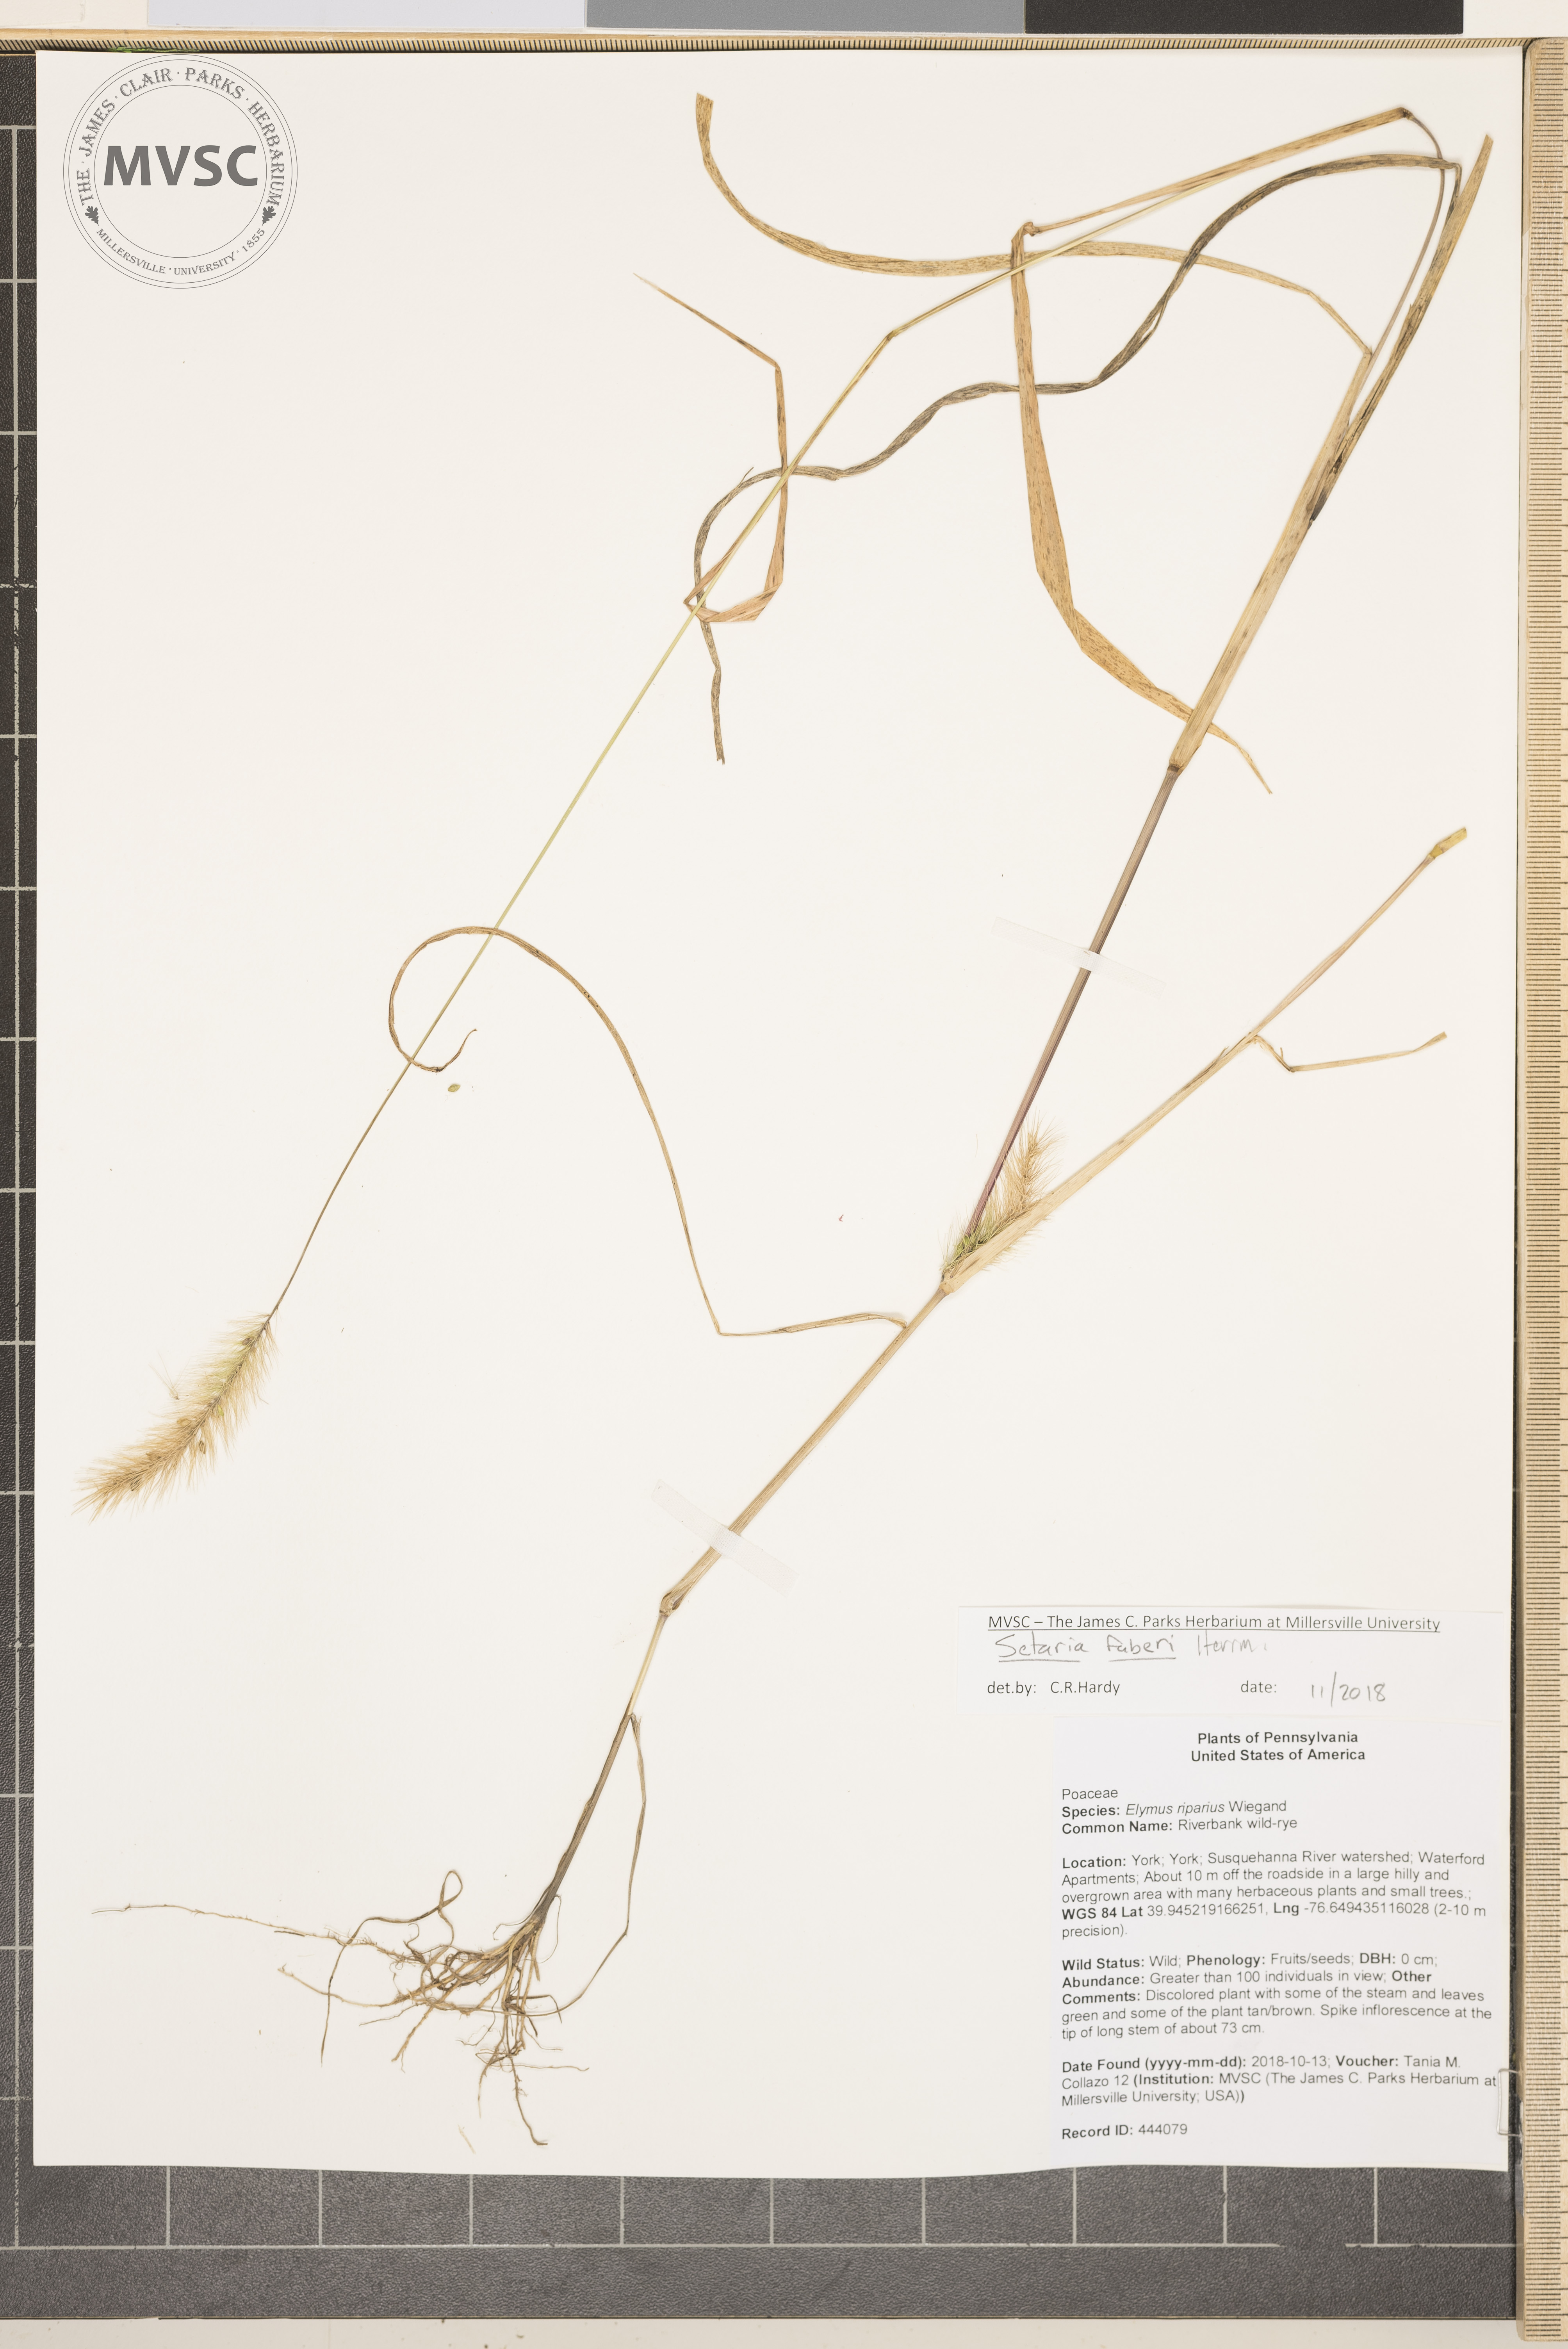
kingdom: Plantae
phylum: Tracheophyta
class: Liliopsida
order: Poales
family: Poaceae
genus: Setaria
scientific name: Setaria faberi
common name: Foxtail
